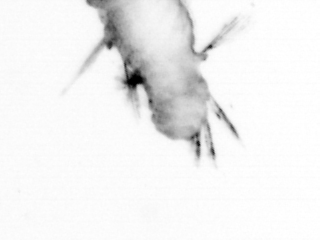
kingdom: Animalia
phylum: Annelida
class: Polychaeta
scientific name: Polychaeta
